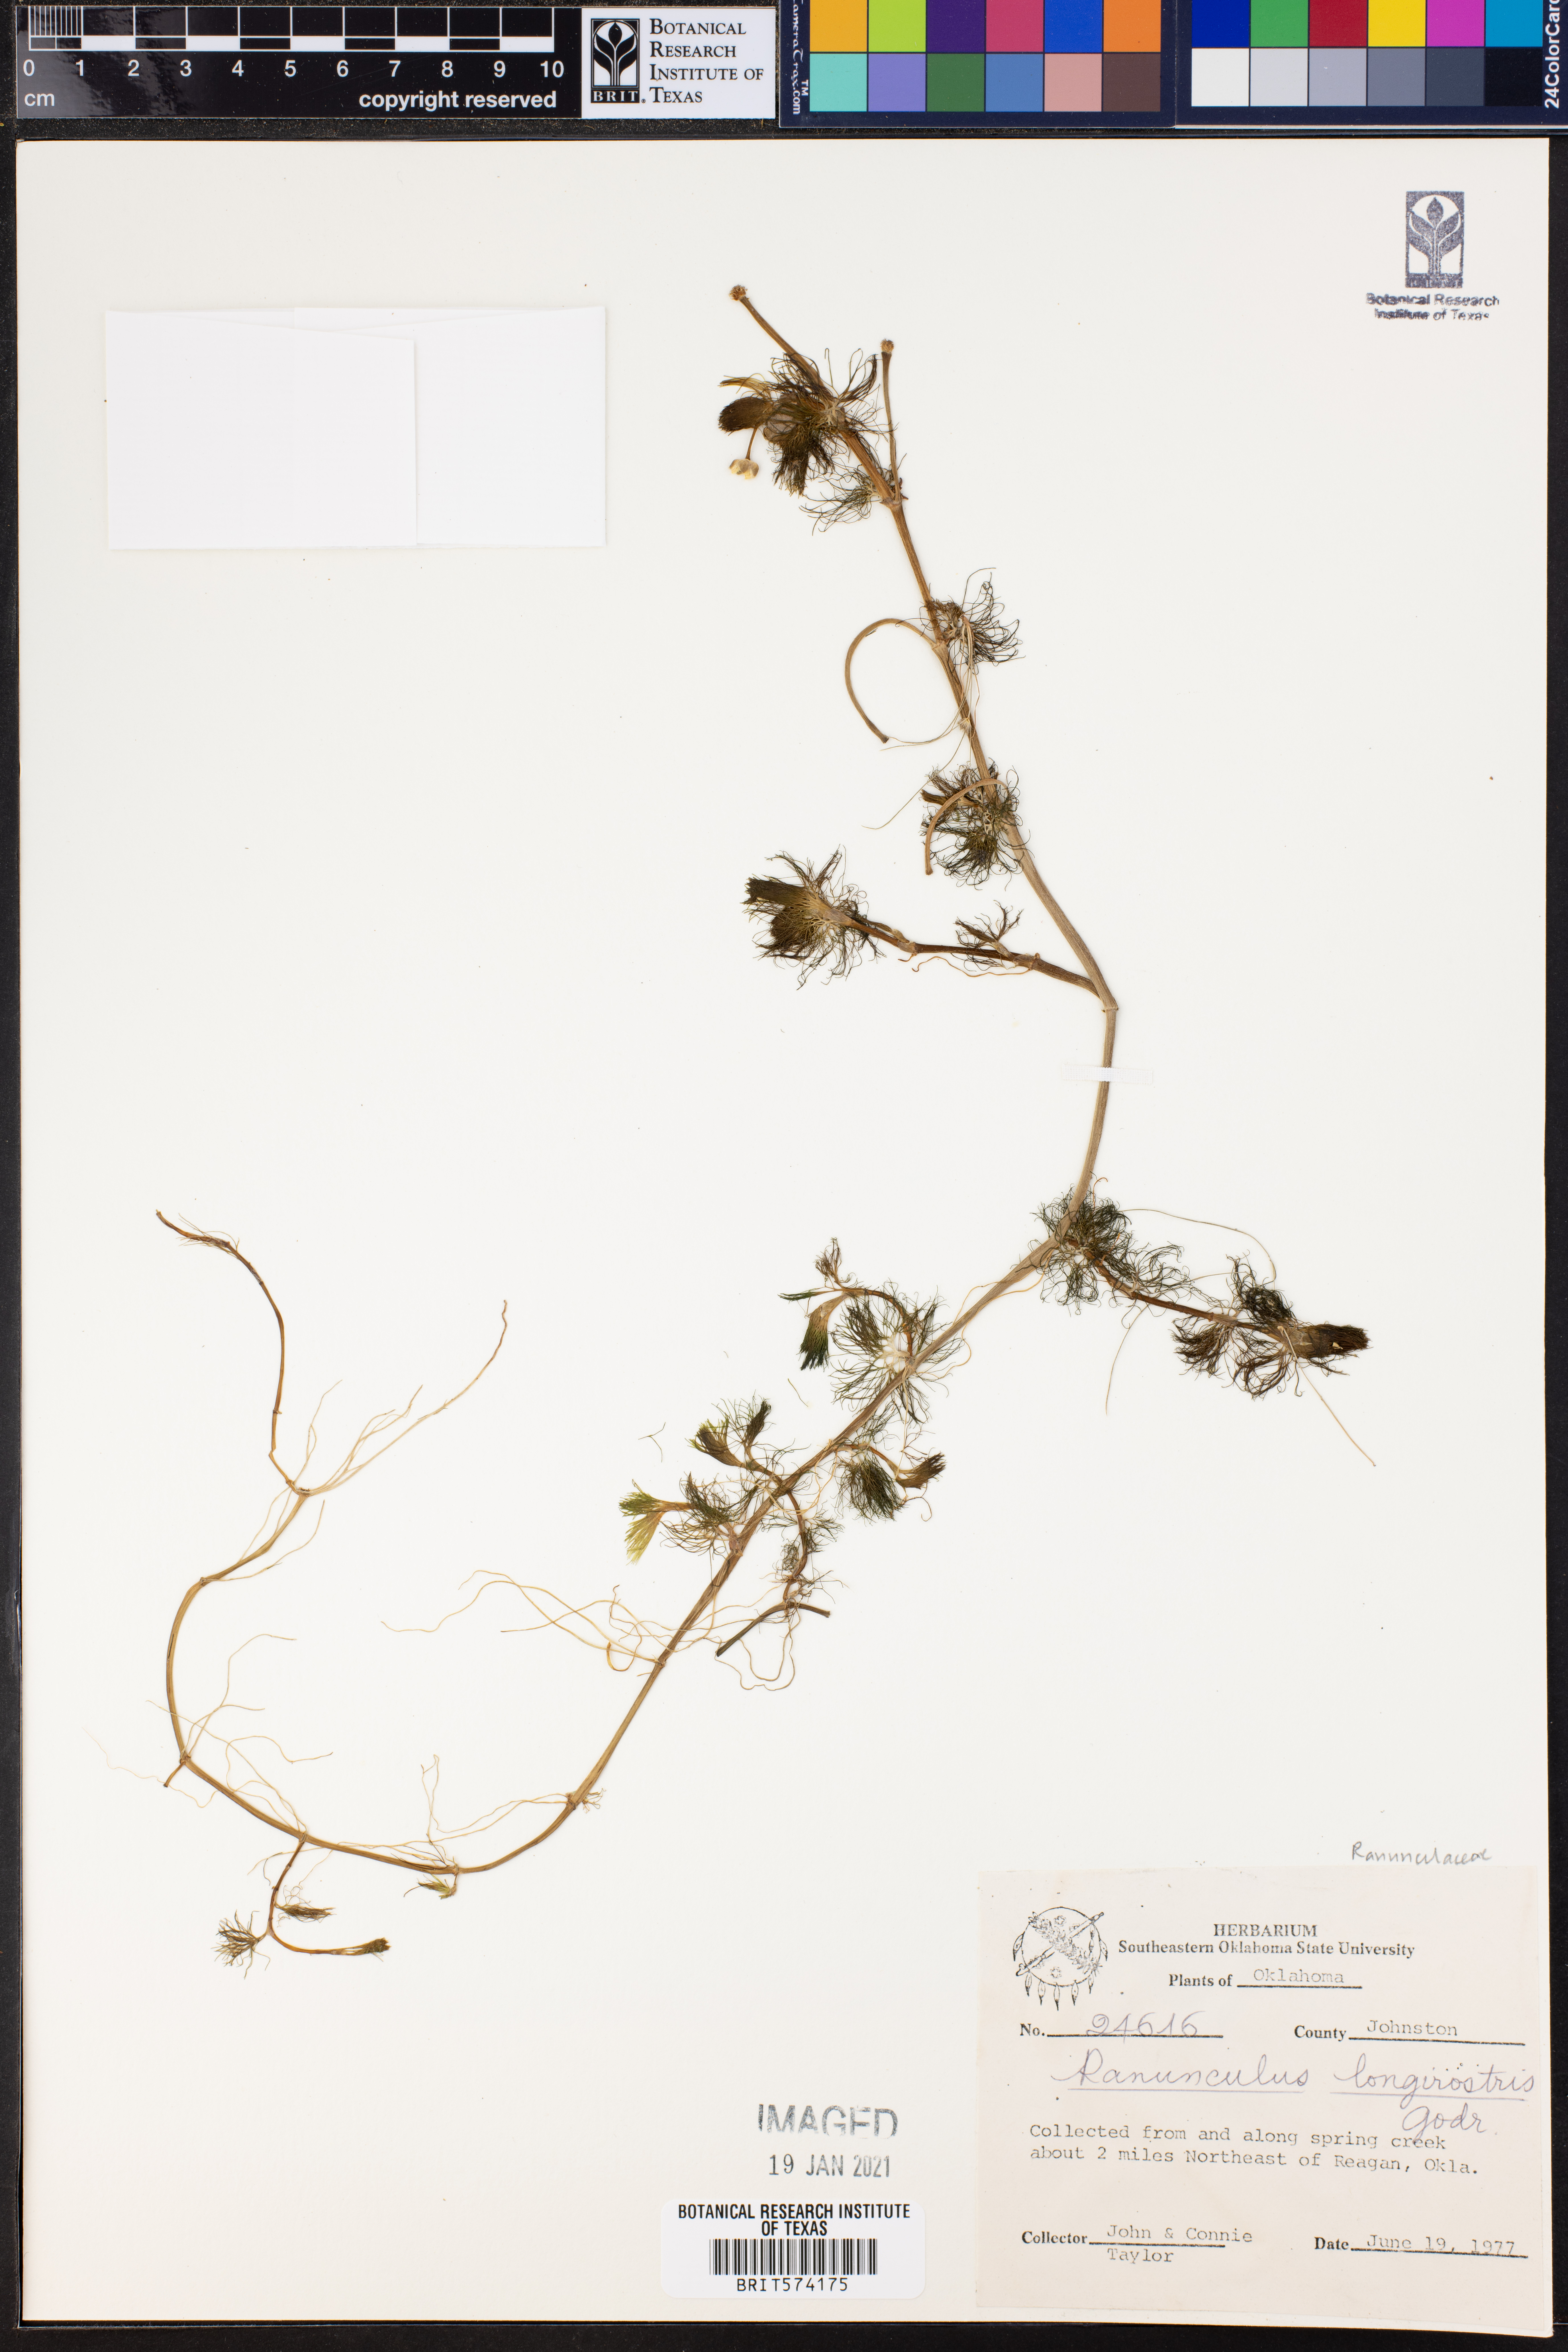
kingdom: Plantae
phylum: Tracheophyta
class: Magnoliopsida
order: Ranunculales
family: Ranunculaceae
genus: Ranunculus
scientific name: Ranunculus longirostris
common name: Curly white water-crowfoot
